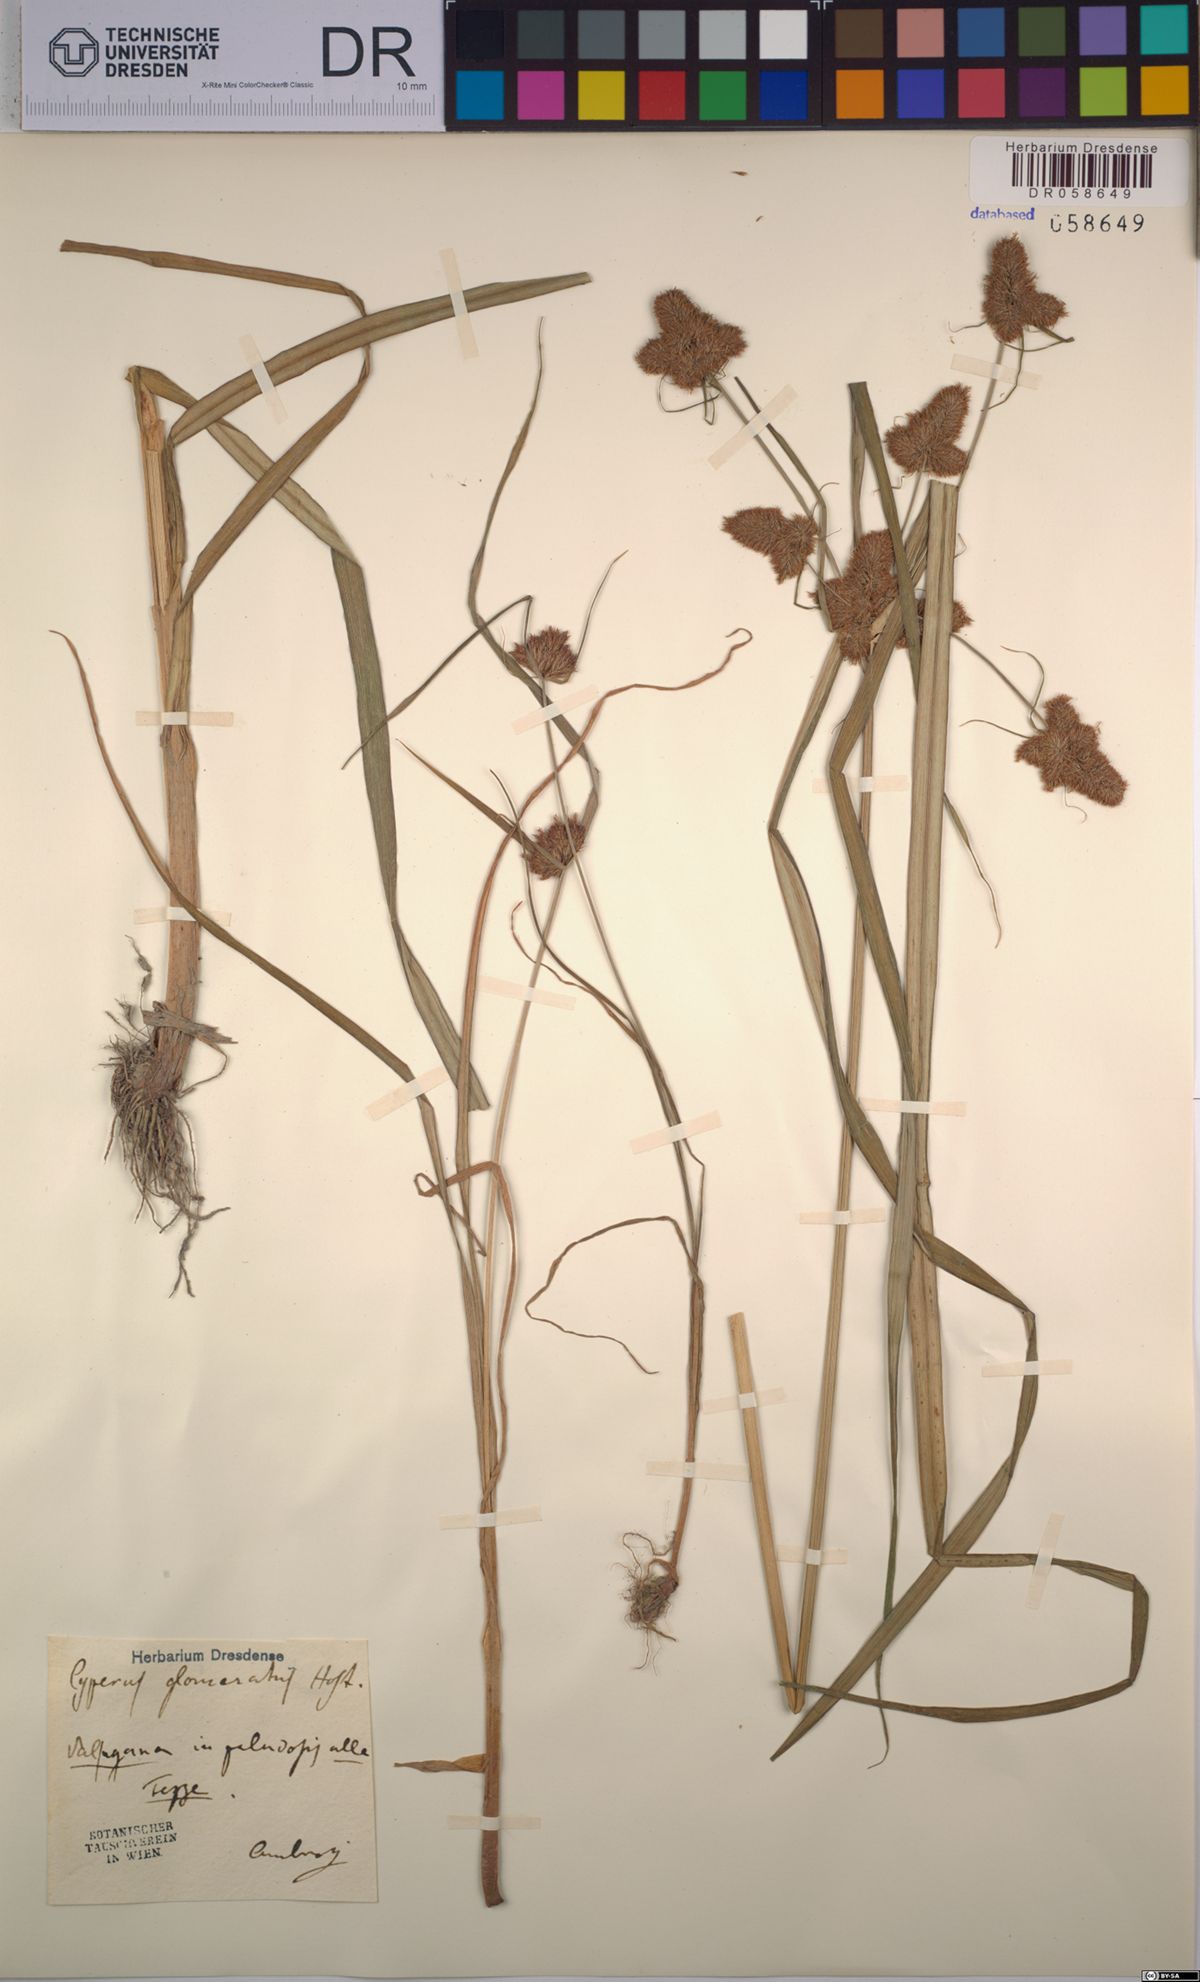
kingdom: Plantae
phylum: Tracheophyta
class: Liliopsida
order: Poales
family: Cyperaceae
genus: Cyperus
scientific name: Cyperus glomeratus
